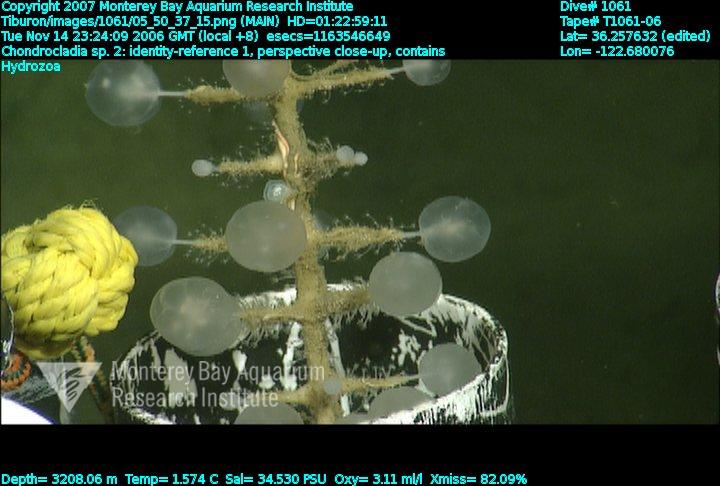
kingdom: Animalia
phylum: Porifera
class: Demospongiae
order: Poecilosclerida
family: Cladorhizidae
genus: Chondrocladia
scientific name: Chondrocladia
